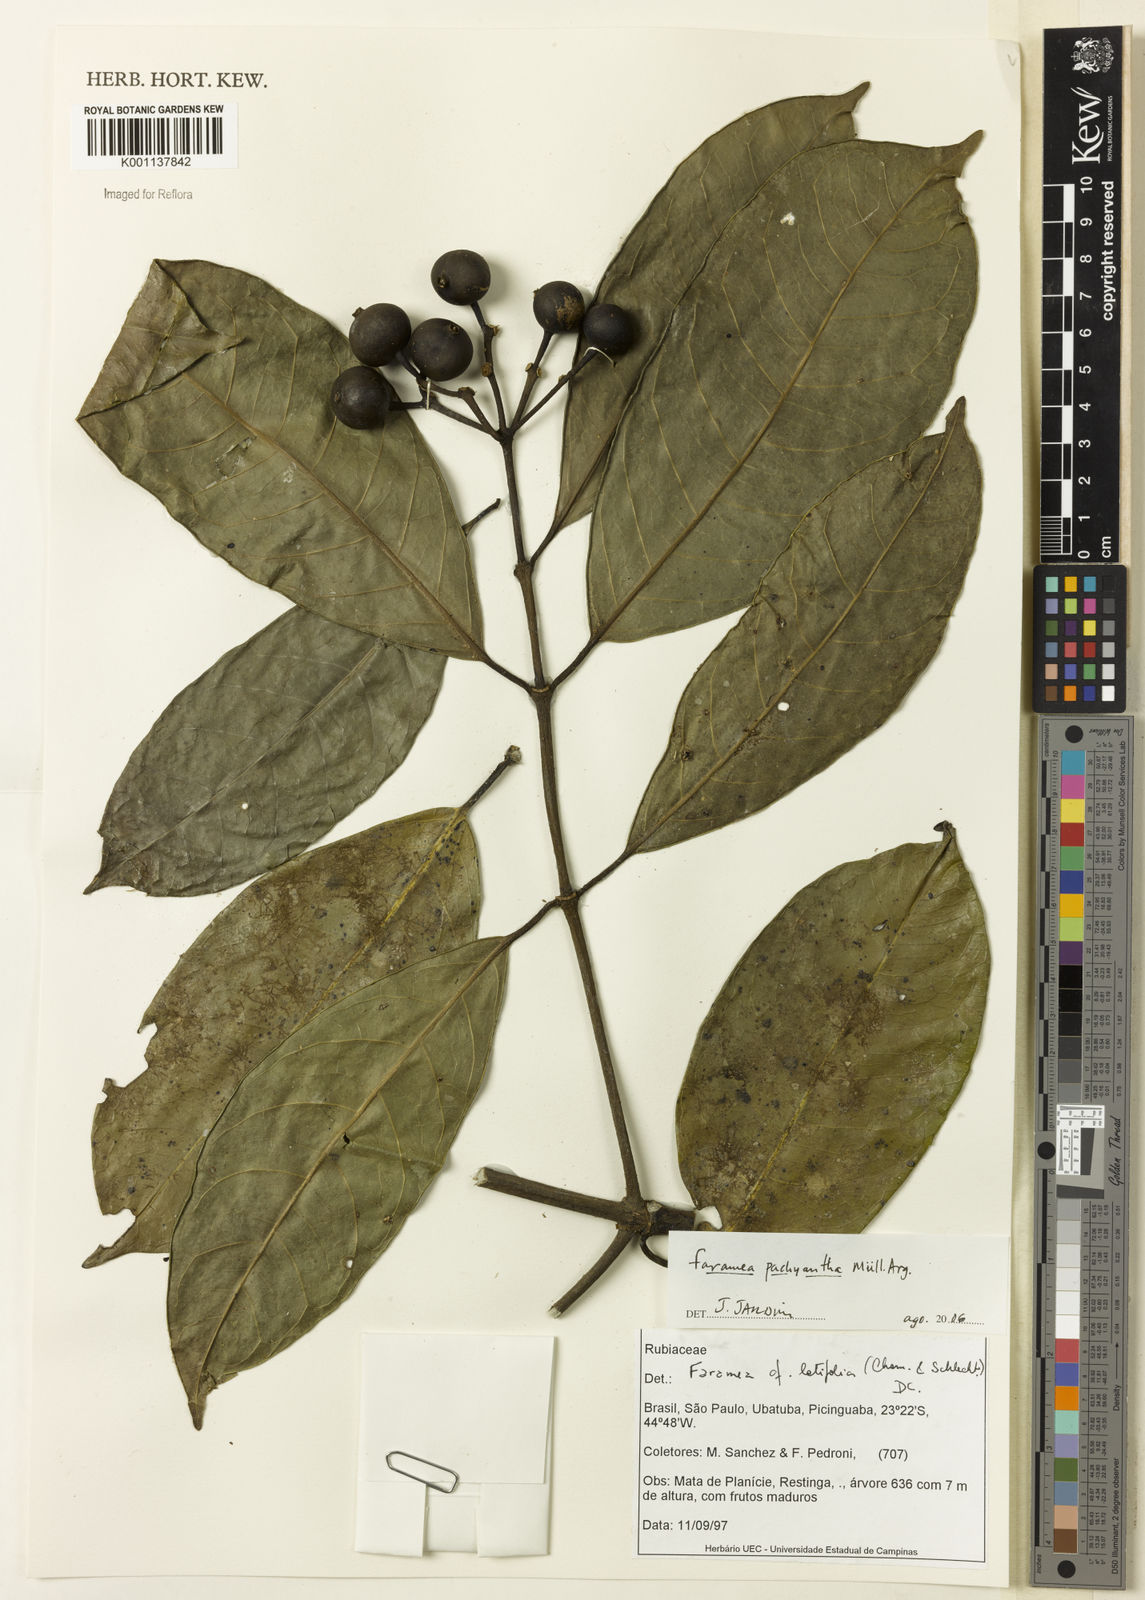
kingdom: Plantae
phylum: Tracheophyta
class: Magnoliopsida
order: Gentianales
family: Rubiaceae
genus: Faramea
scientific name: Faramea
